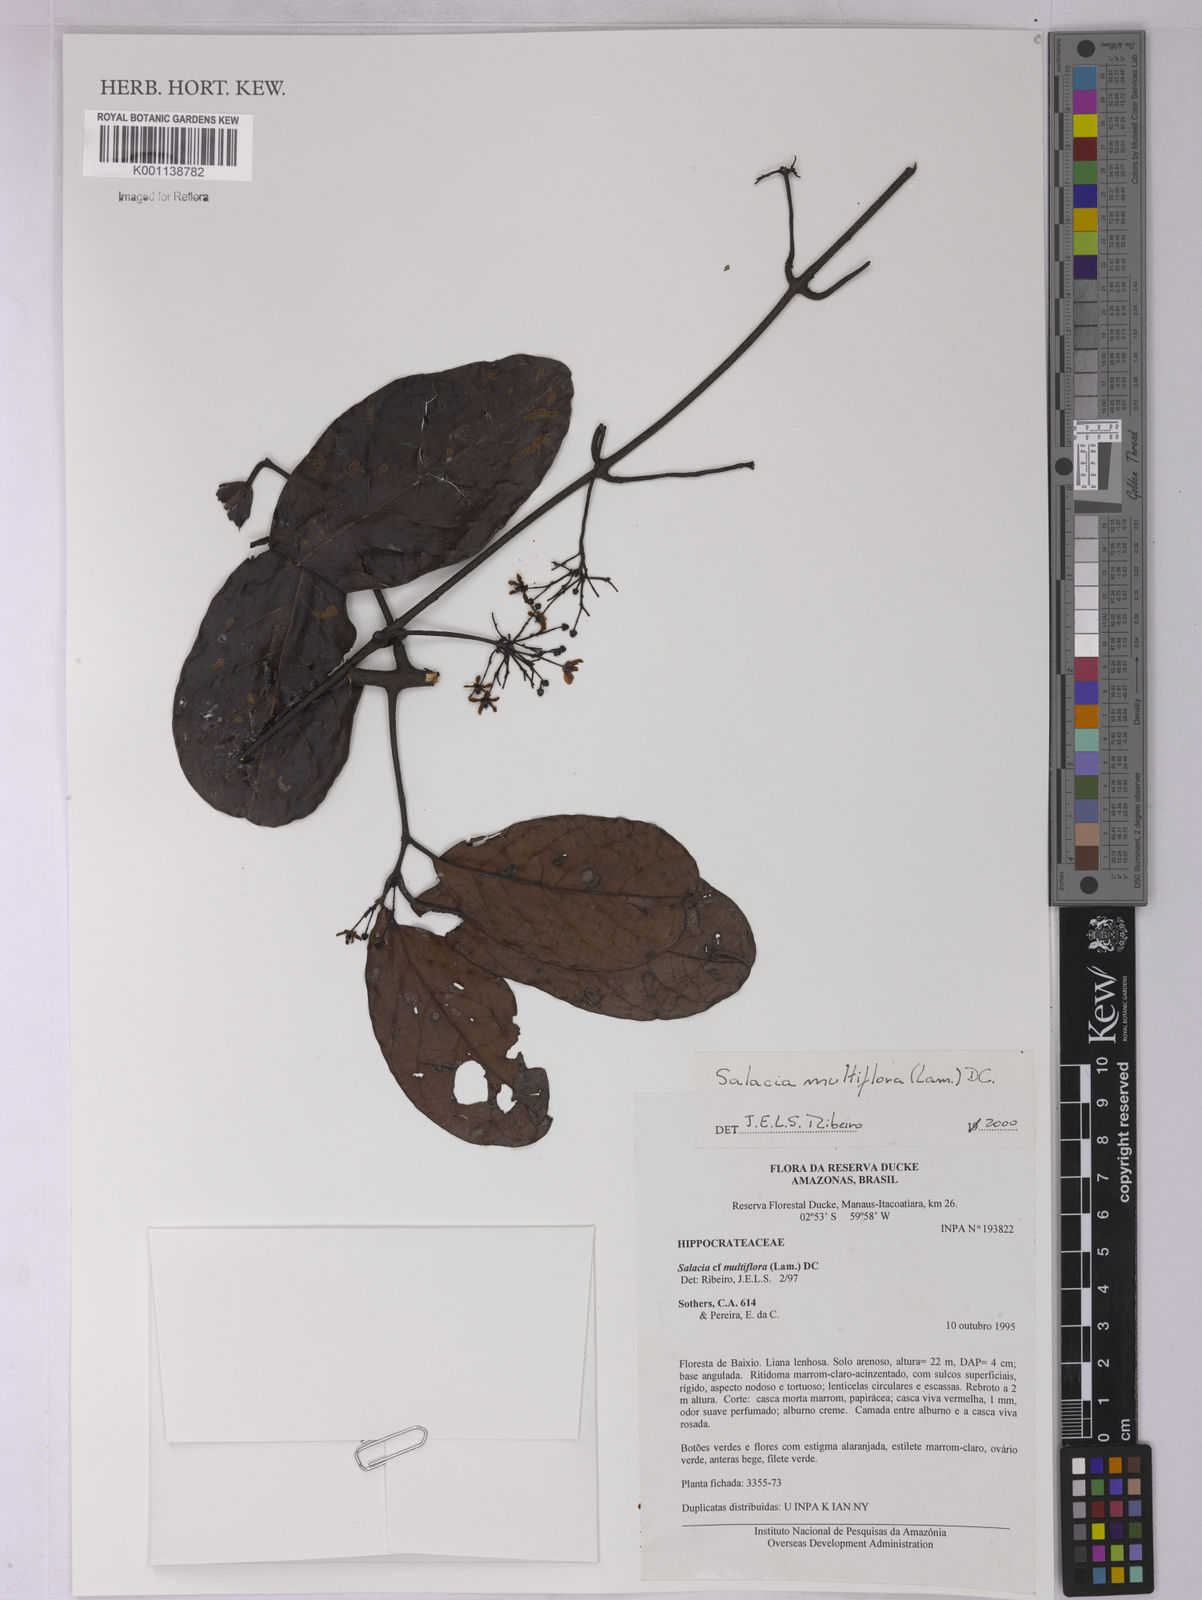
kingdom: Plantae
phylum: Tracheophyta
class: Magnoliopsida
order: Celastrales
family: Celastraceae
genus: Salacia
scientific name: Salacia multiflora
